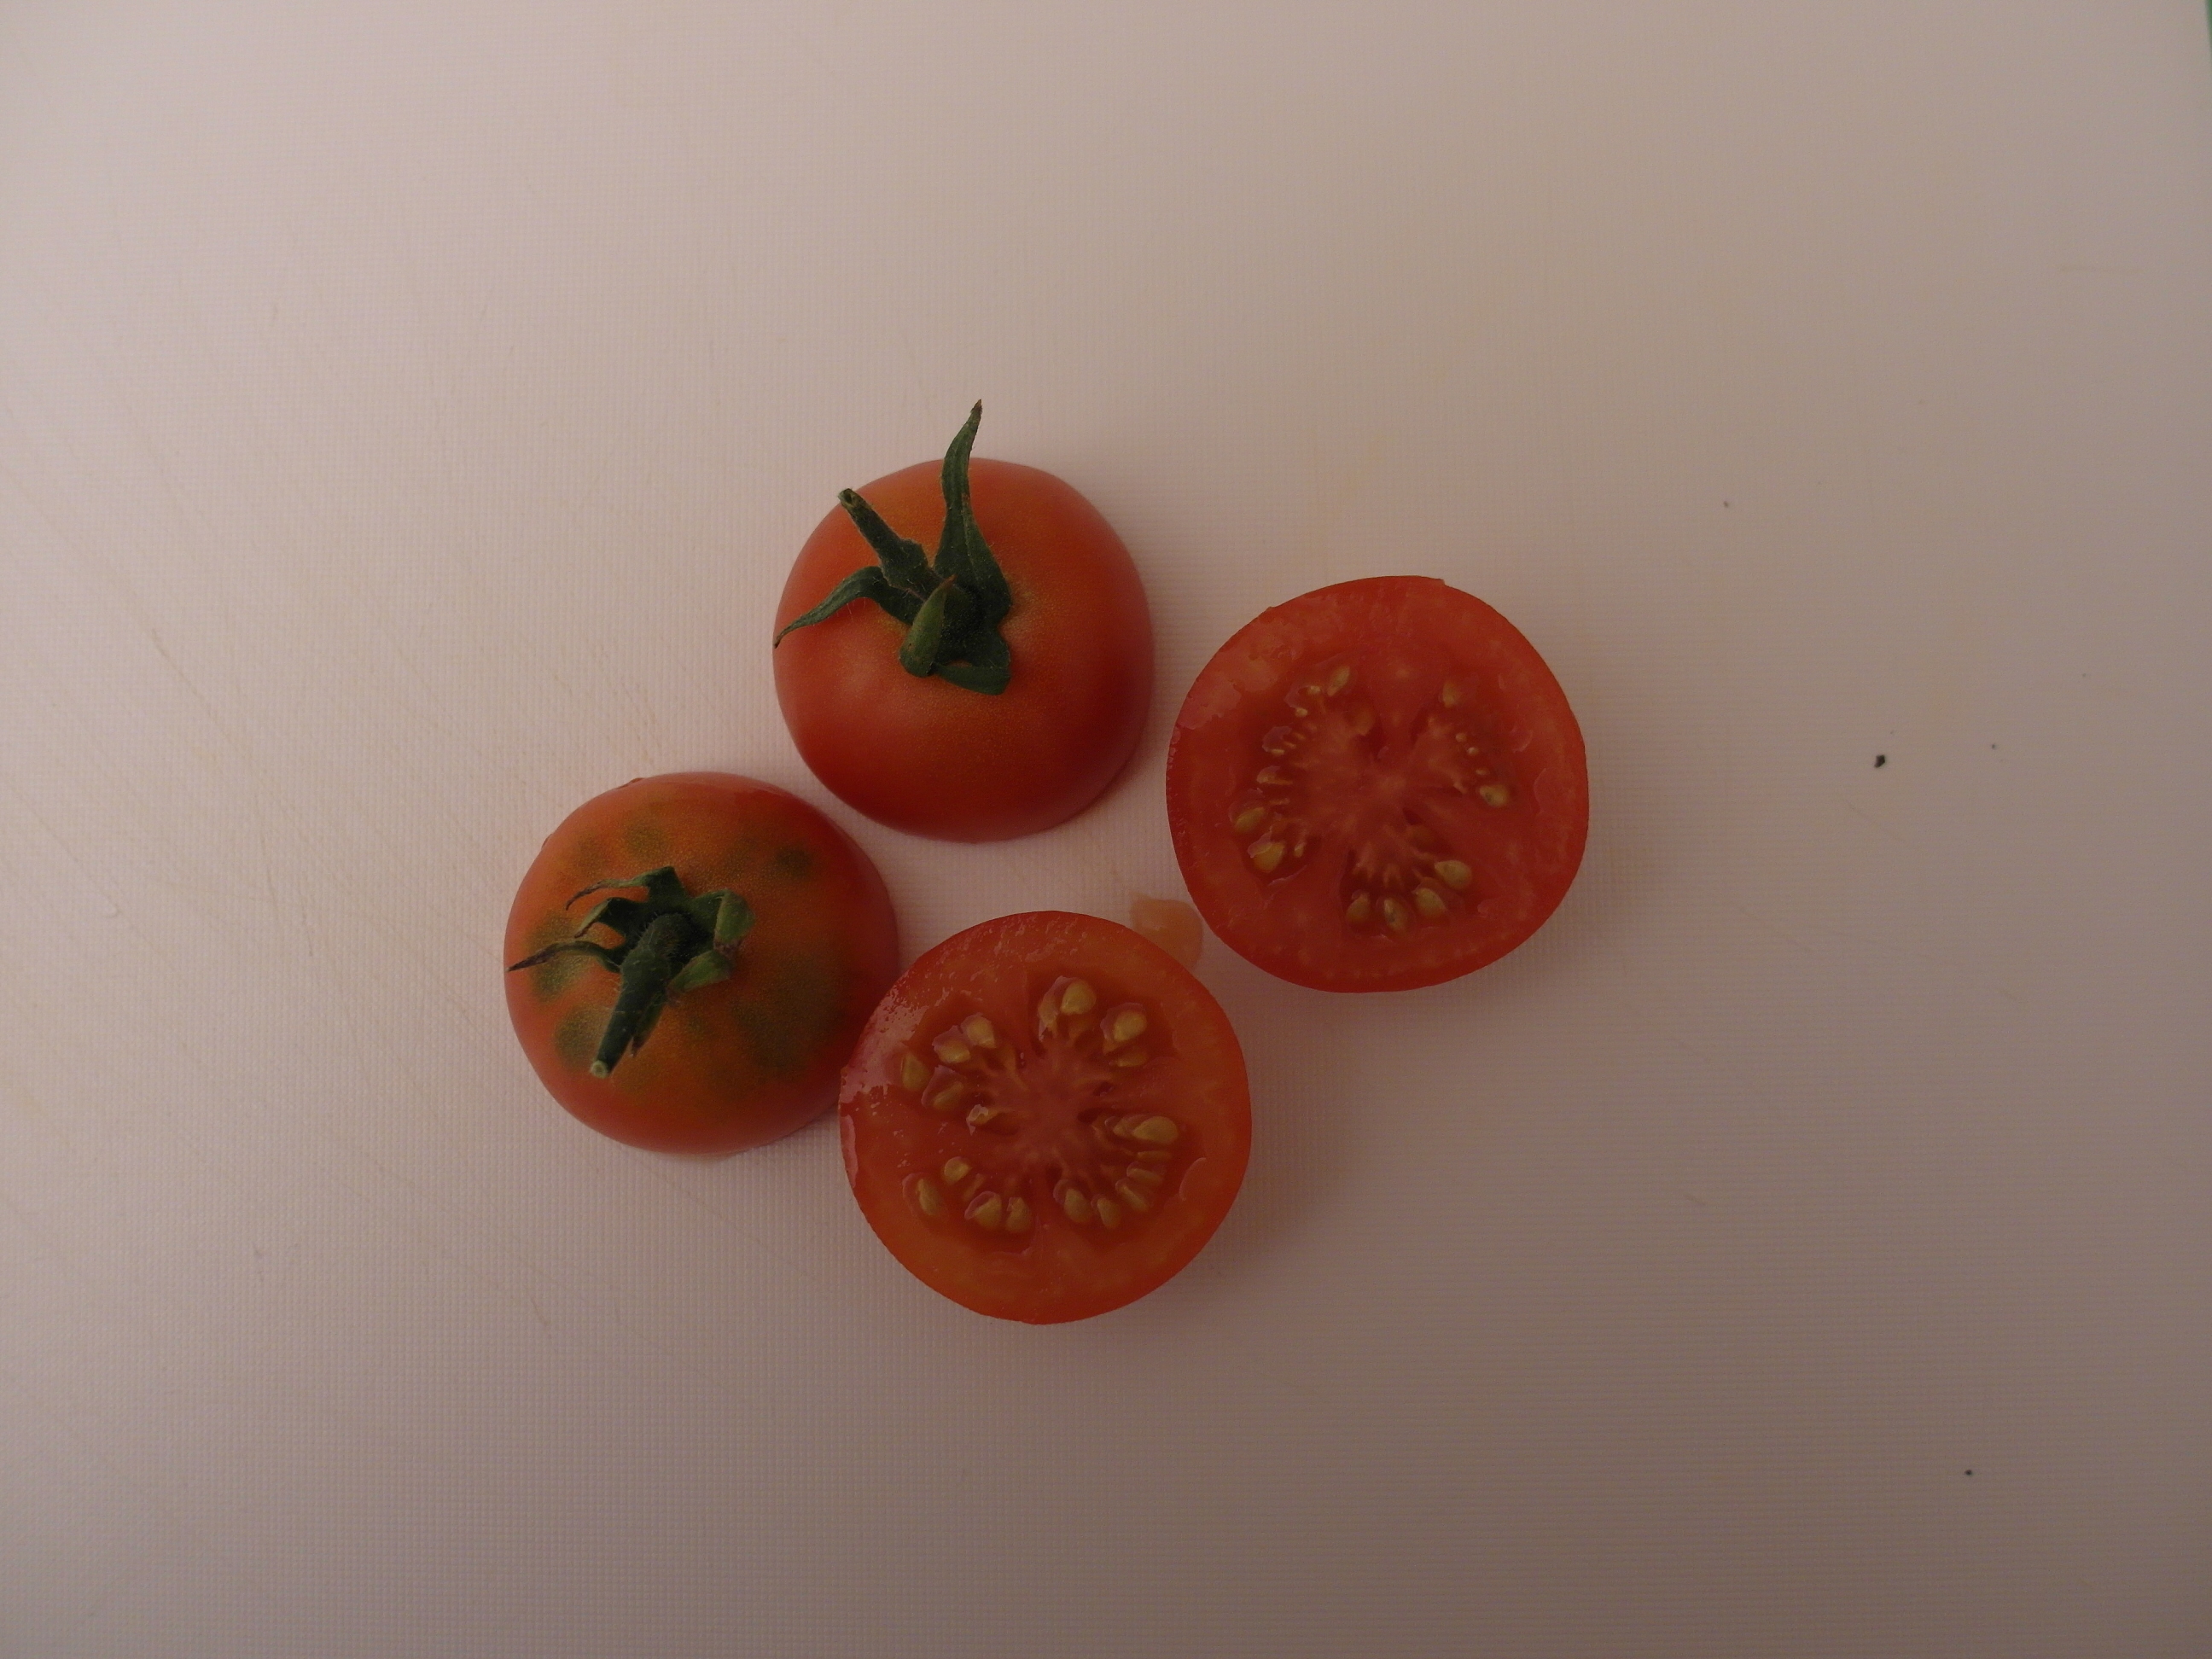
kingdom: Plantae
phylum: Tracheophyta
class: Magnoliopsida
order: Solanales
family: Solanaceae
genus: Solanum
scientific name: Solanum lycopersicum
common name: Garden tomato
